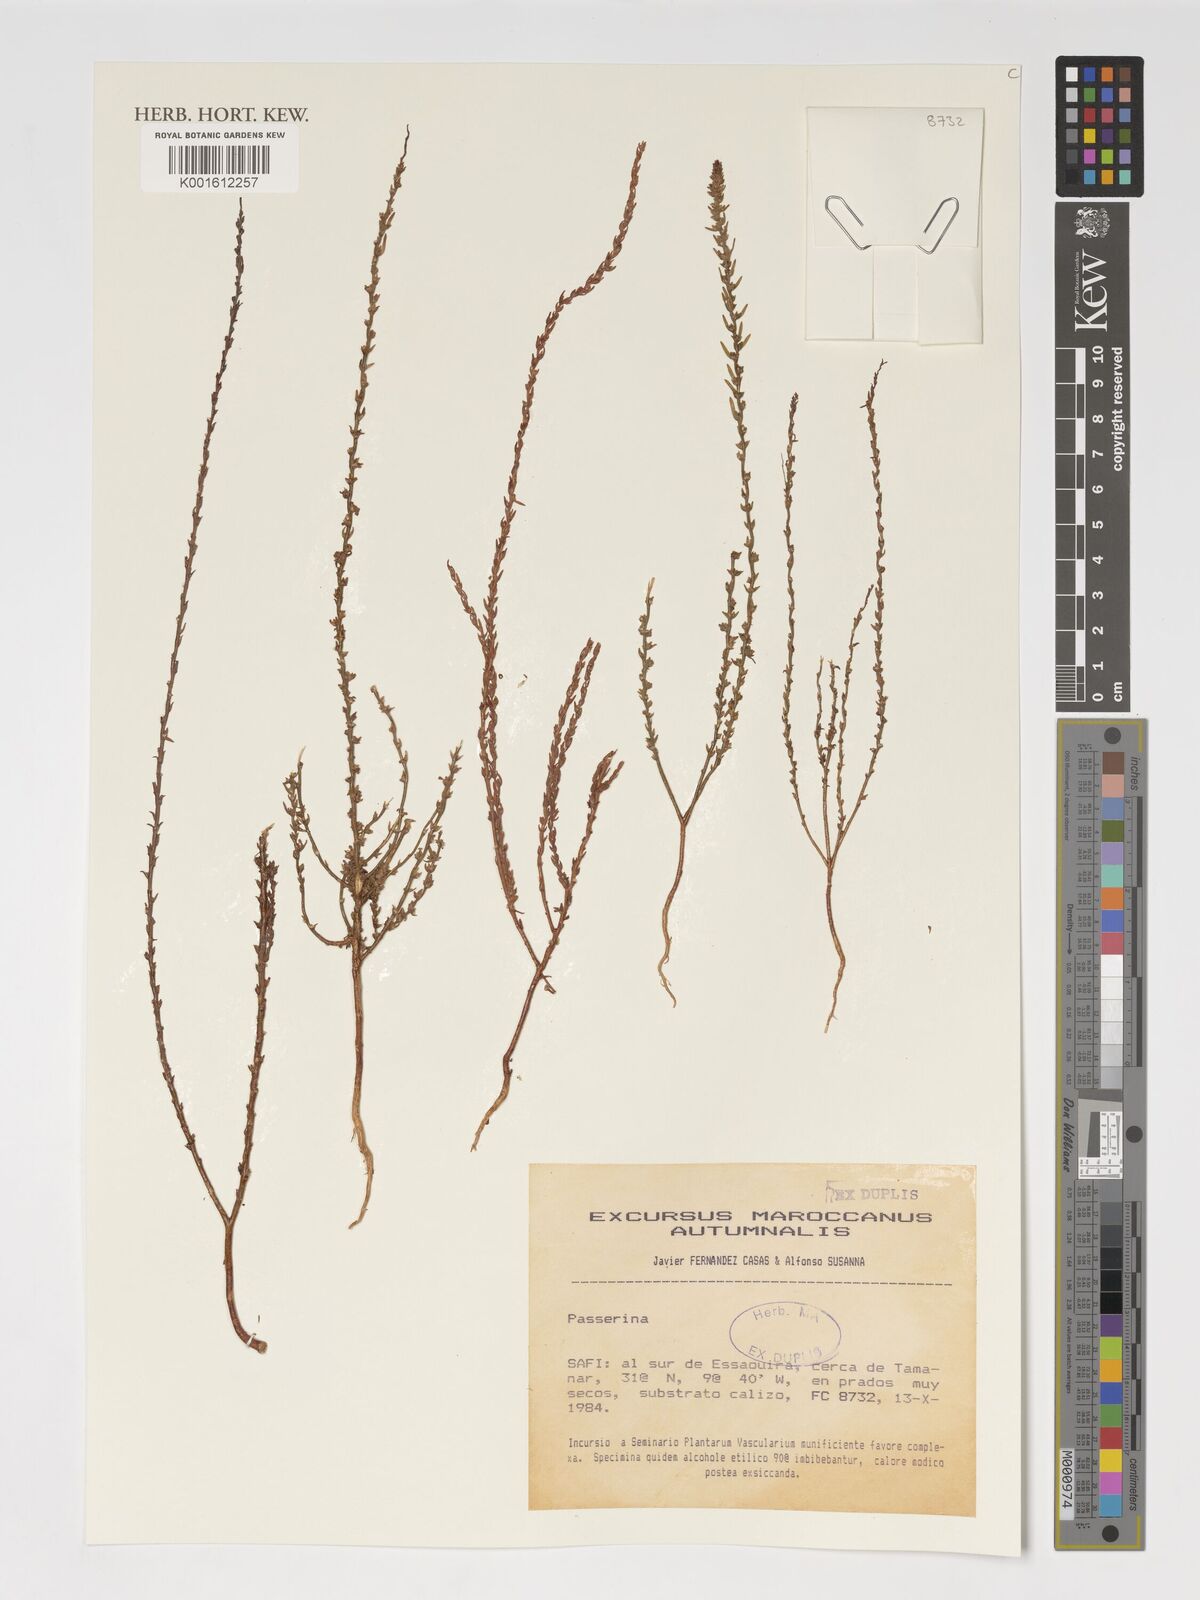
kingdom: Plantae
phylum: Tracheophyta
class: Magnoliopsida
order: Malvales
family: Thymelaeaceae
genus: Passerina
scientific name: Passerina
